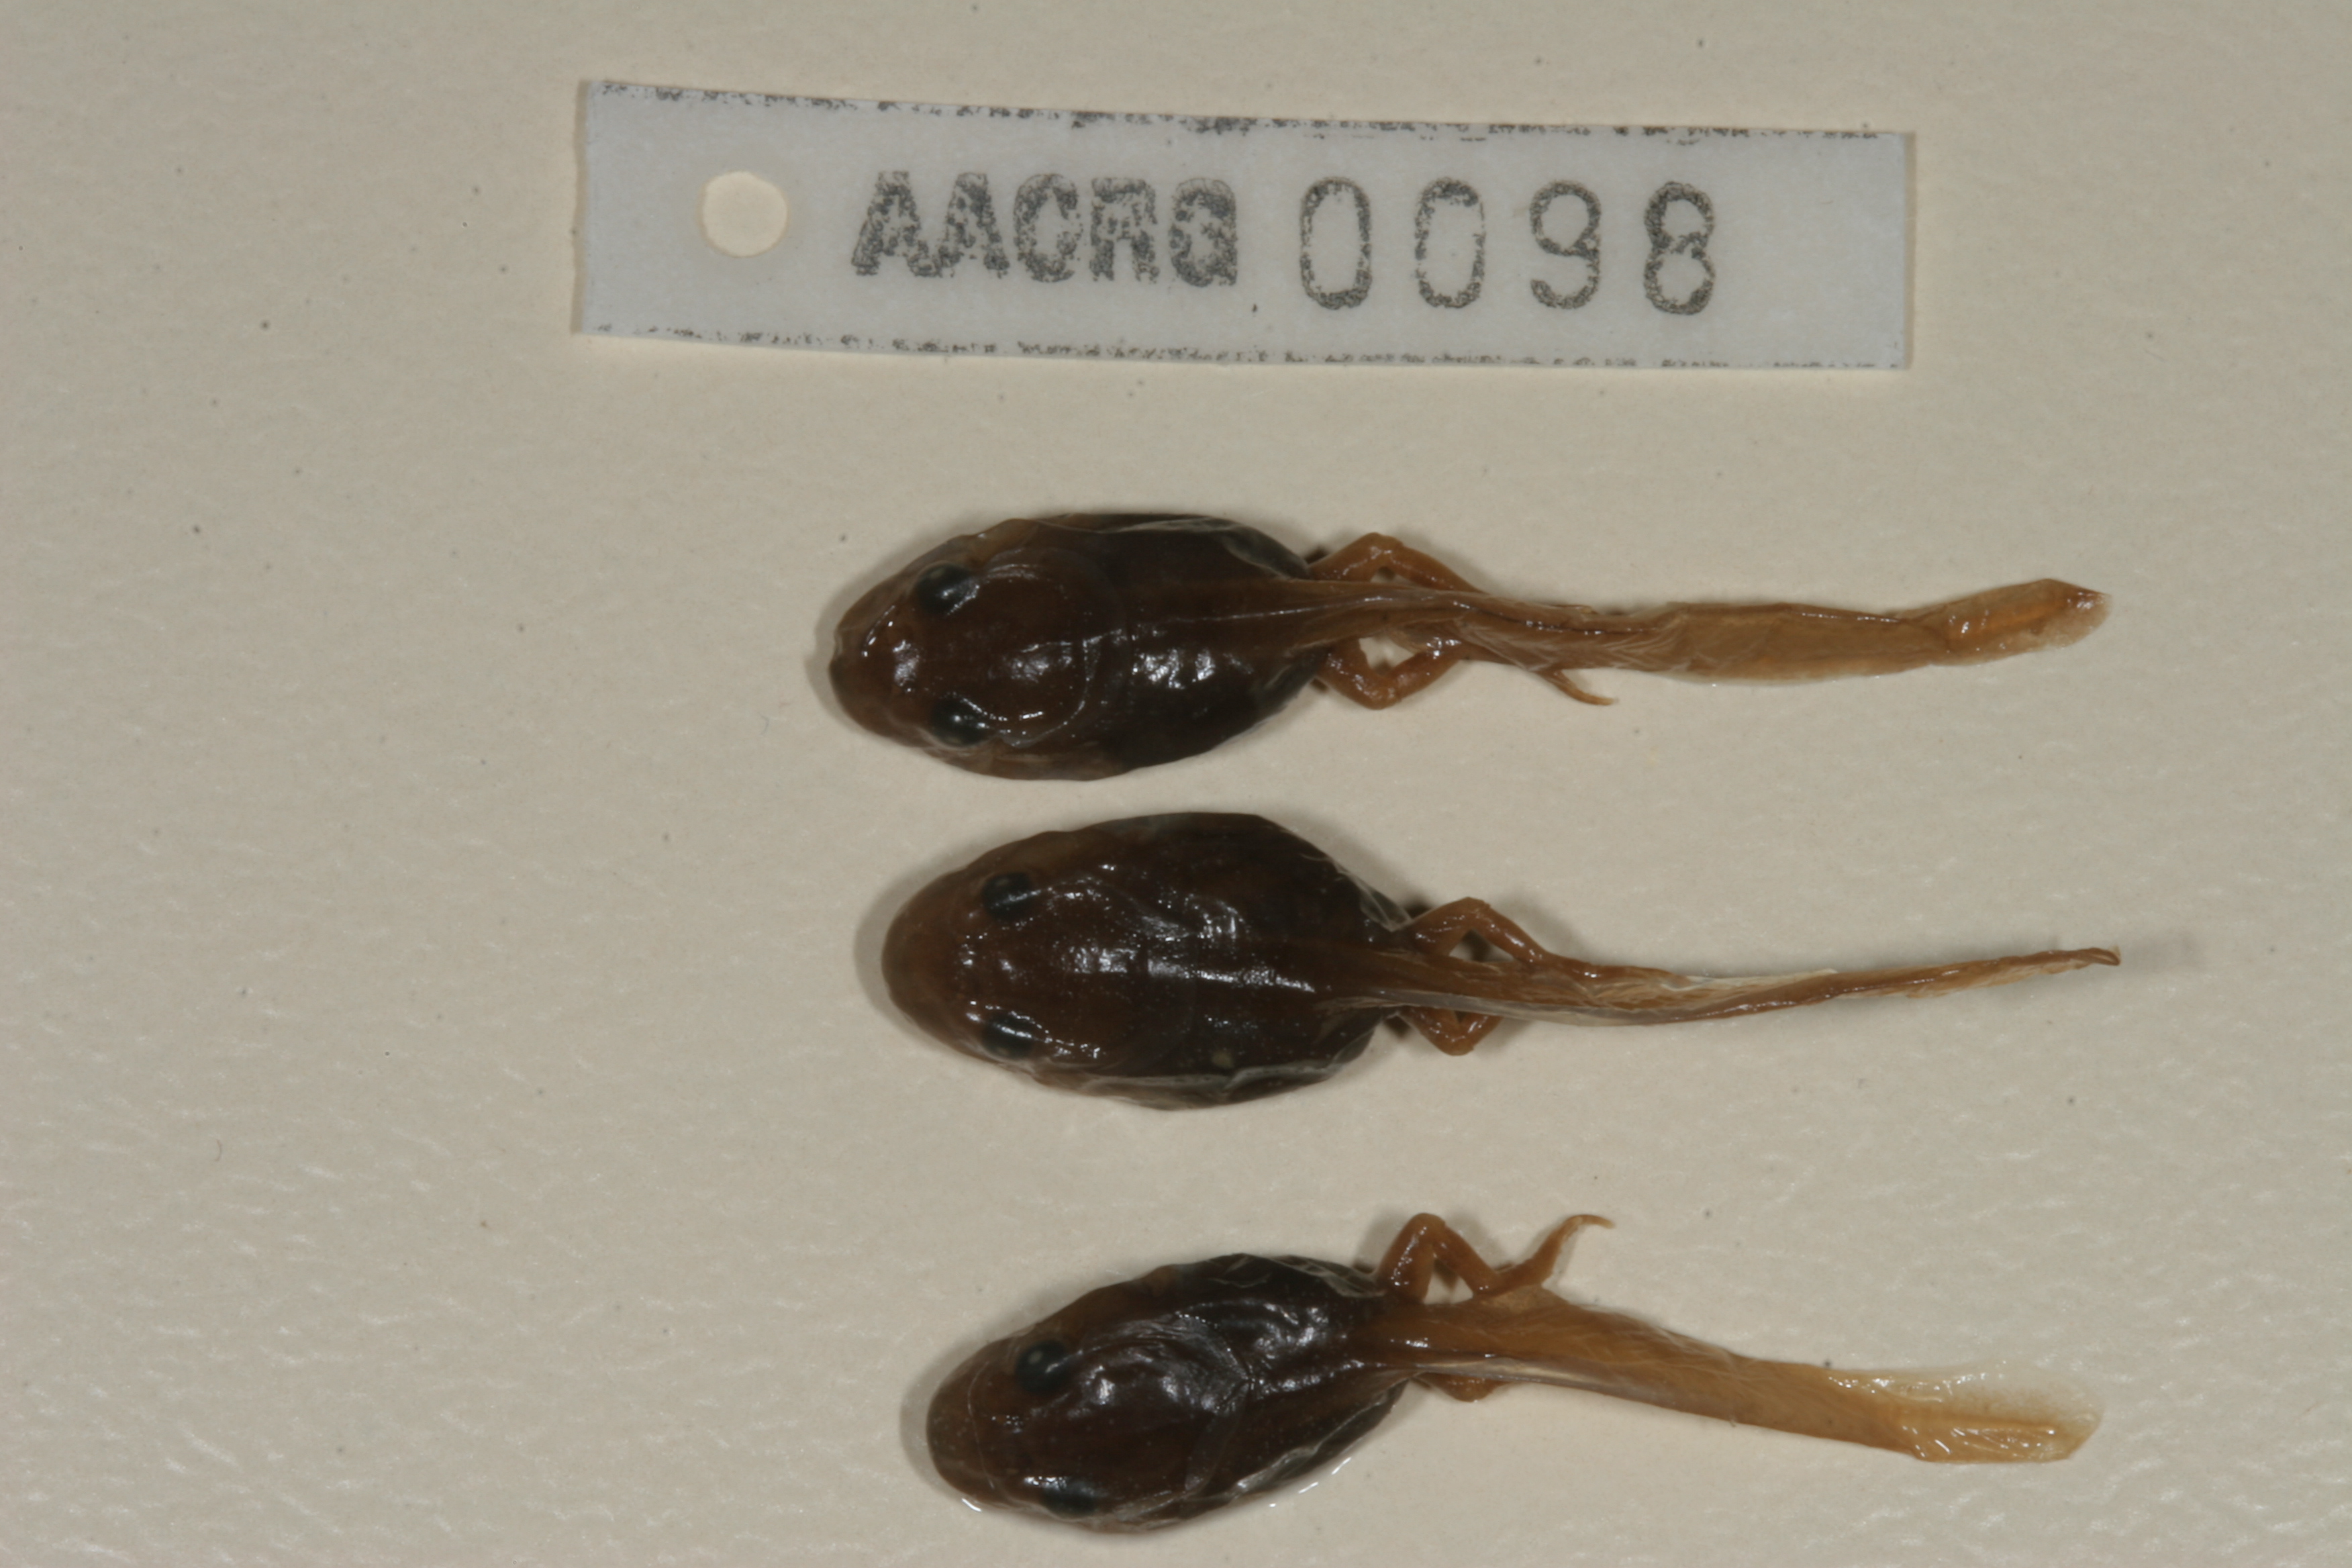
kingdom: Animalia
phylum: Chordata
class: Amphibia
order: Anura
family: Bufonidae
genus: Schismaderma
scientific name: Schismaderma carens
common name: African split-skin toad
